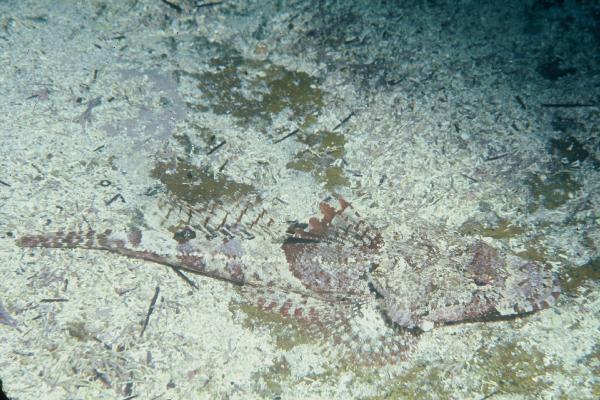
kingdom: Animalia
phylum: Chordata
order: Scorpaeniformes
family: Platycephalidae
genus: Thysanophrys
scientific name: Thysanophrys cirronasa
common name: Rock flathead
